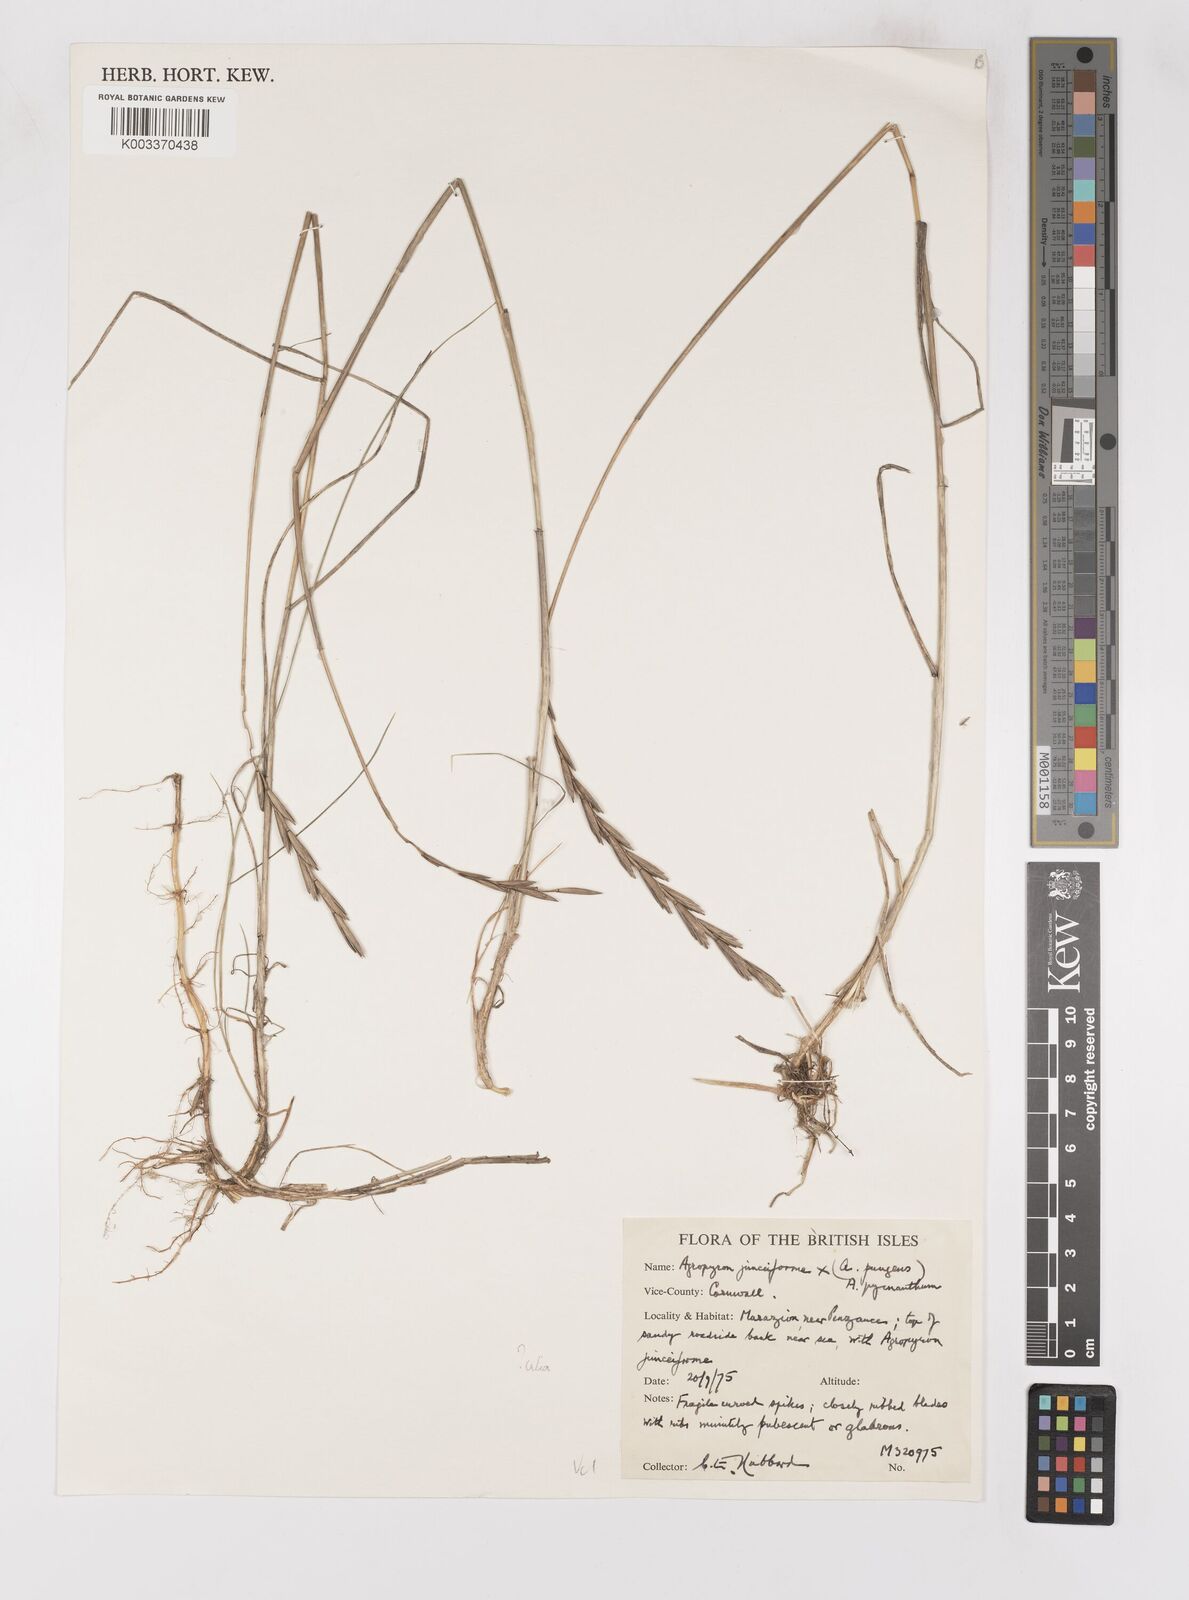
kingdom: Plantae
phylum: Tracheophyta
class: Liliopsida
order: Poales
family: Poaceae
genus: Thinoelymus
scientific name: Thinoelymus obtusiusculus
